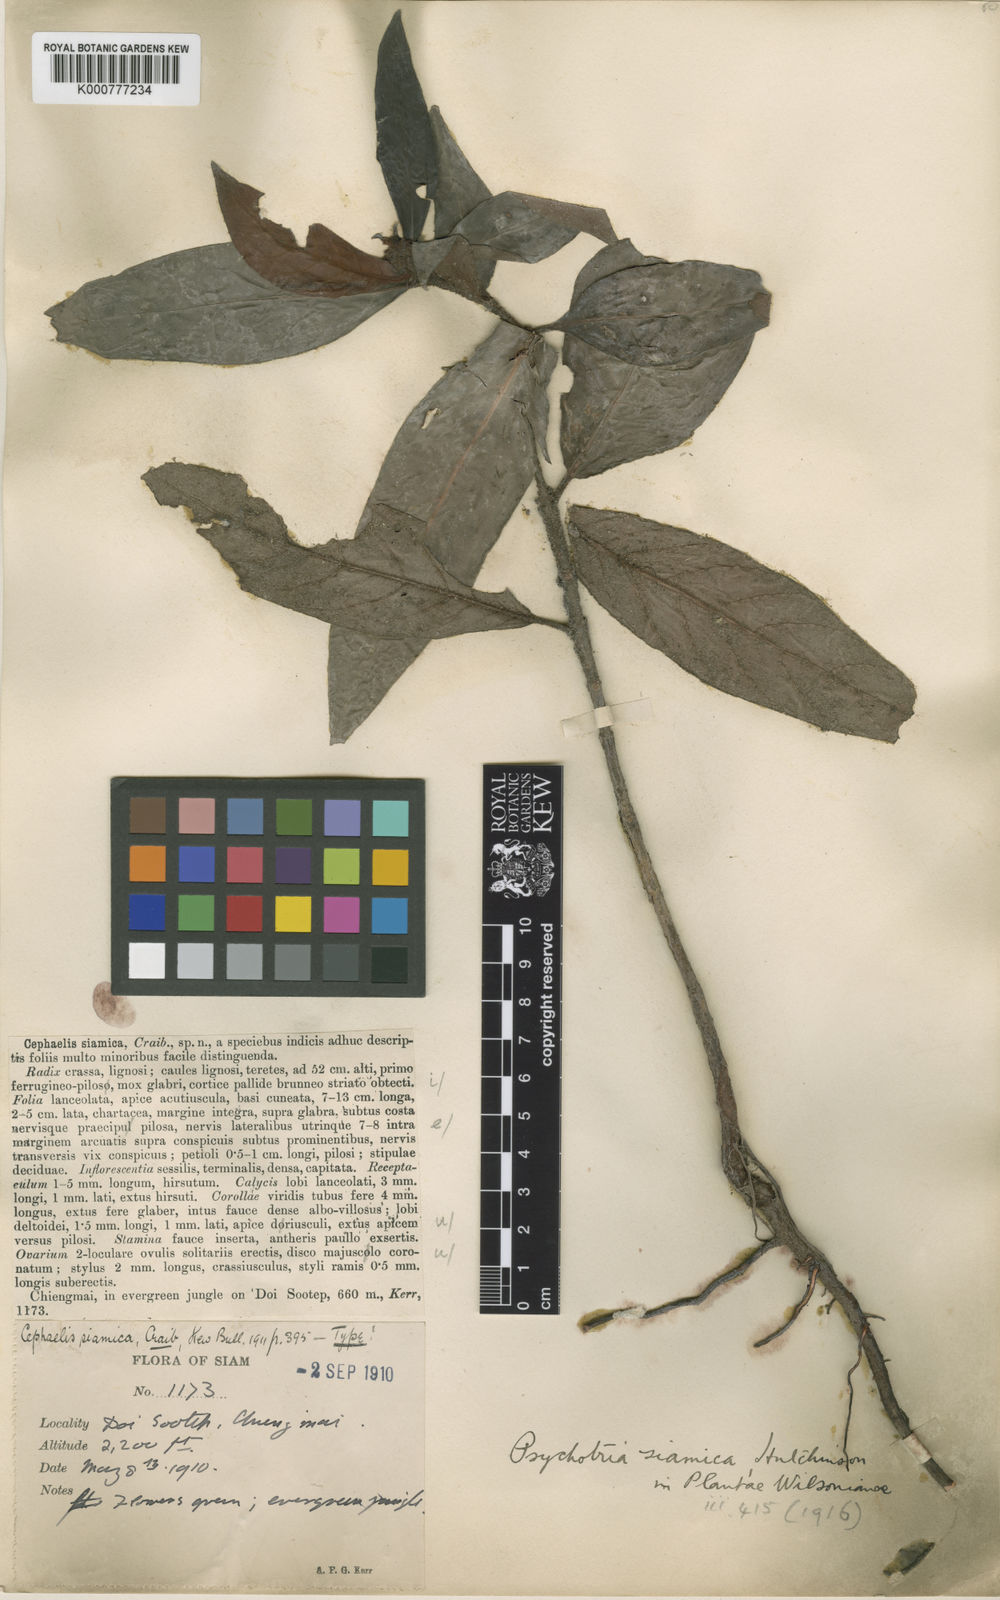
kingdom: Plantae
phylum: Tracheophyta
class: Magnoliopsida
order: Gentianales
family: Rubiaceae
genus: Psychotria
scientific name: Psychotria
